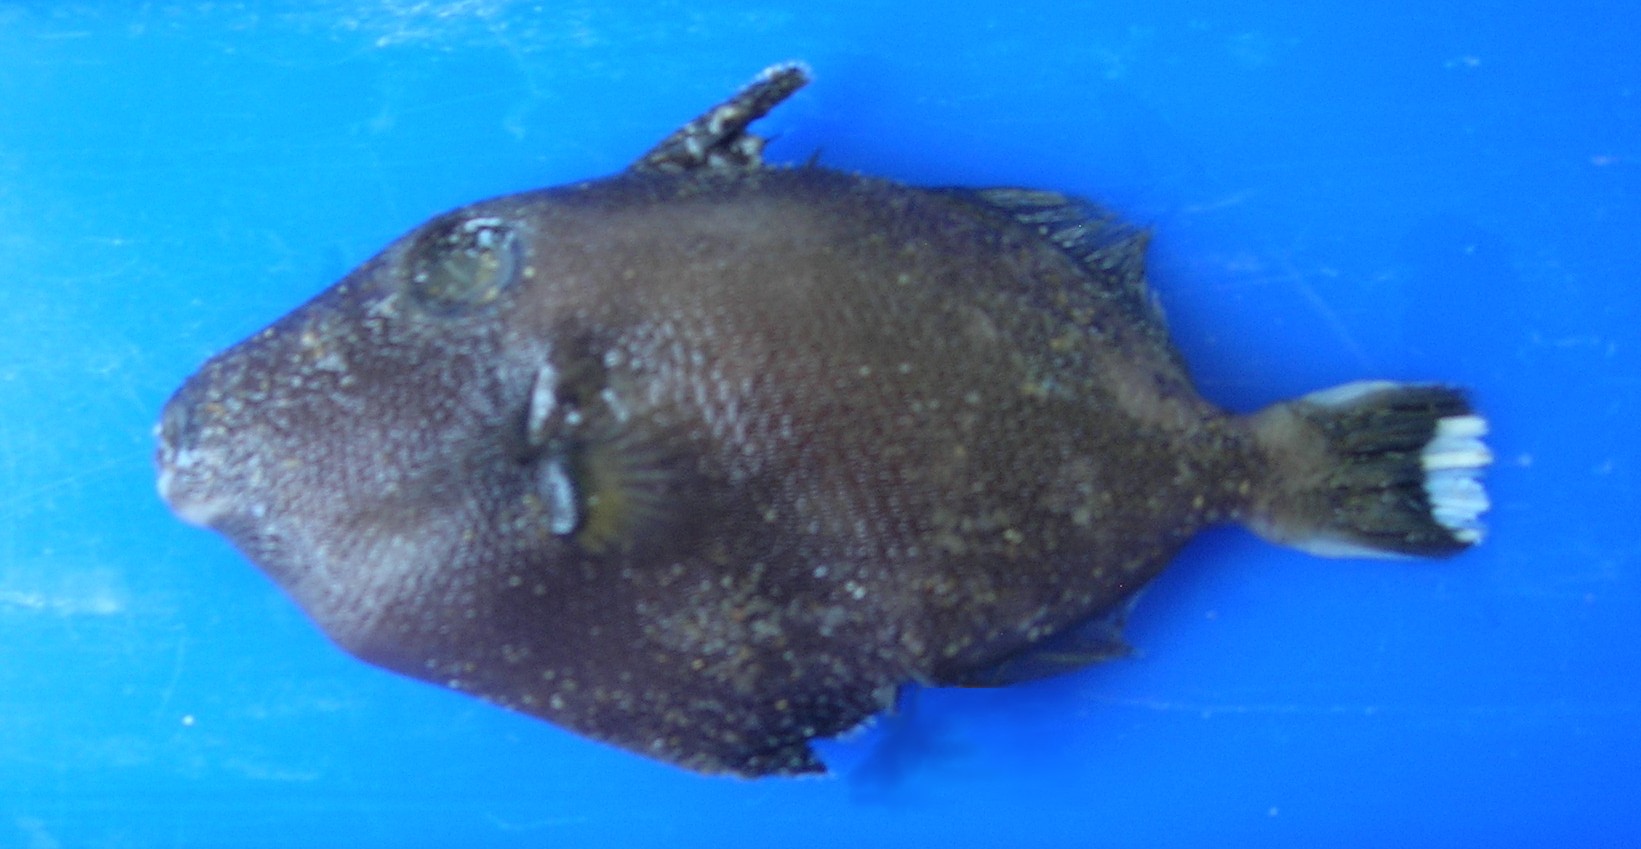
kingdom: Animalia
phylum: Chordata
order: Tetraodontiformes
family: Balistidae
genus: Sufflamen
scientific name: Sufflamen chrysopterum
